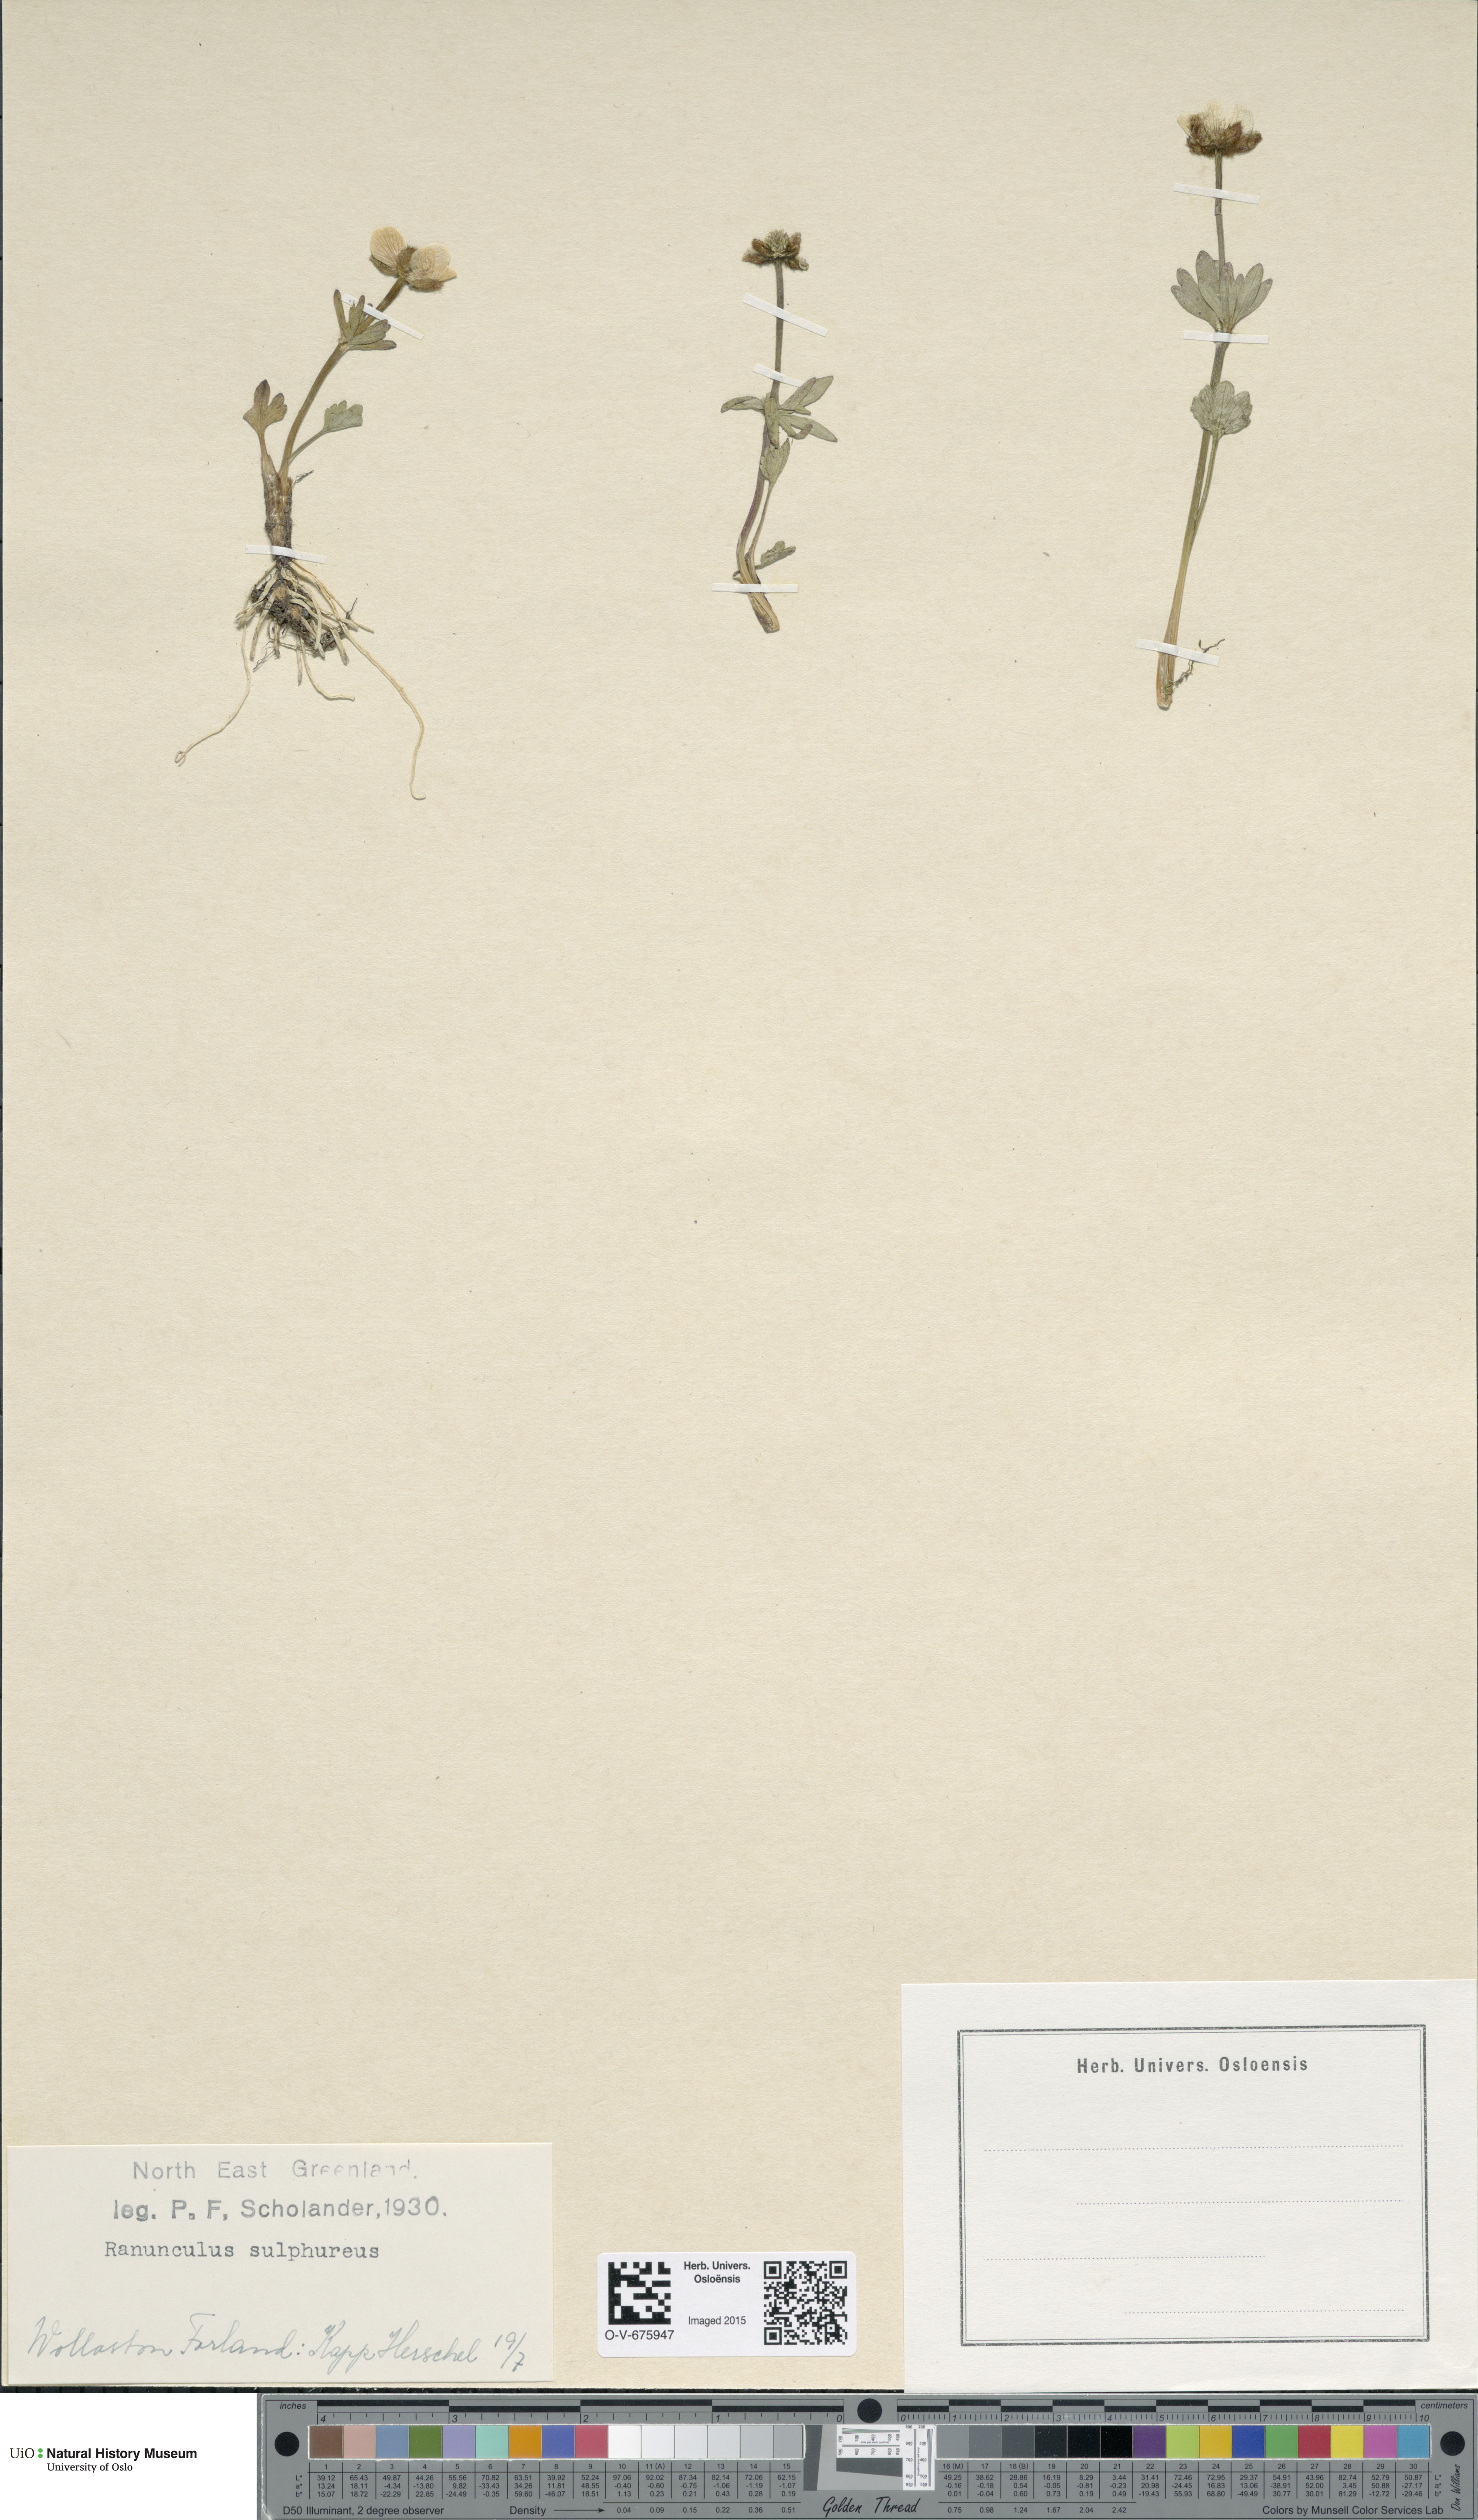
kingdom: Plantae
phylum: Tracheophyta
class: Magnoliopsida
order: Ranunculales
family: Ranunculaceae
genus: Ranunculus
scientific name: Ranunculus sulphureus
